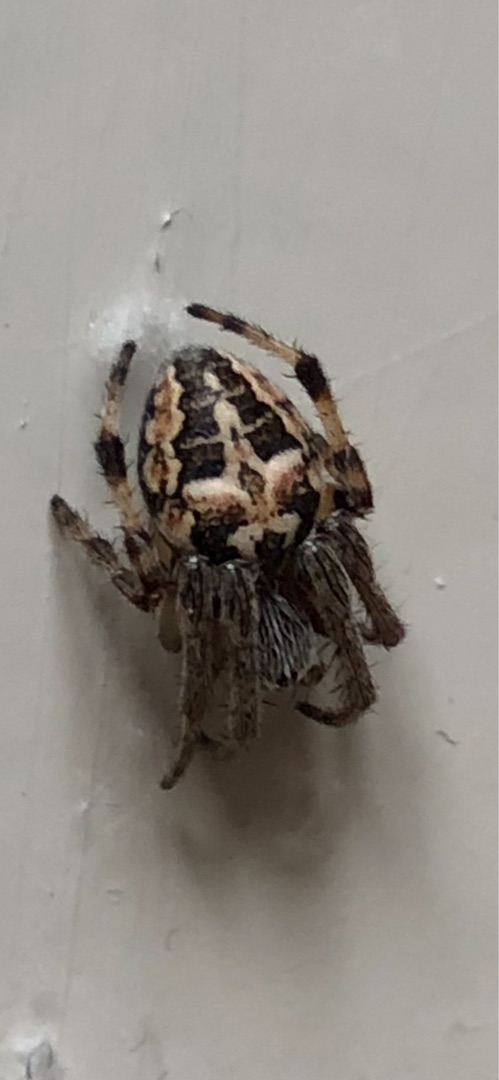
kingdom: Animalia
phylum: Arthropoda
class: Arachnida
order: Araneae
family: Araneidae
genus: Larinioides
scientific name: Larinioides cornutus
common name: Sivhjulspinder
